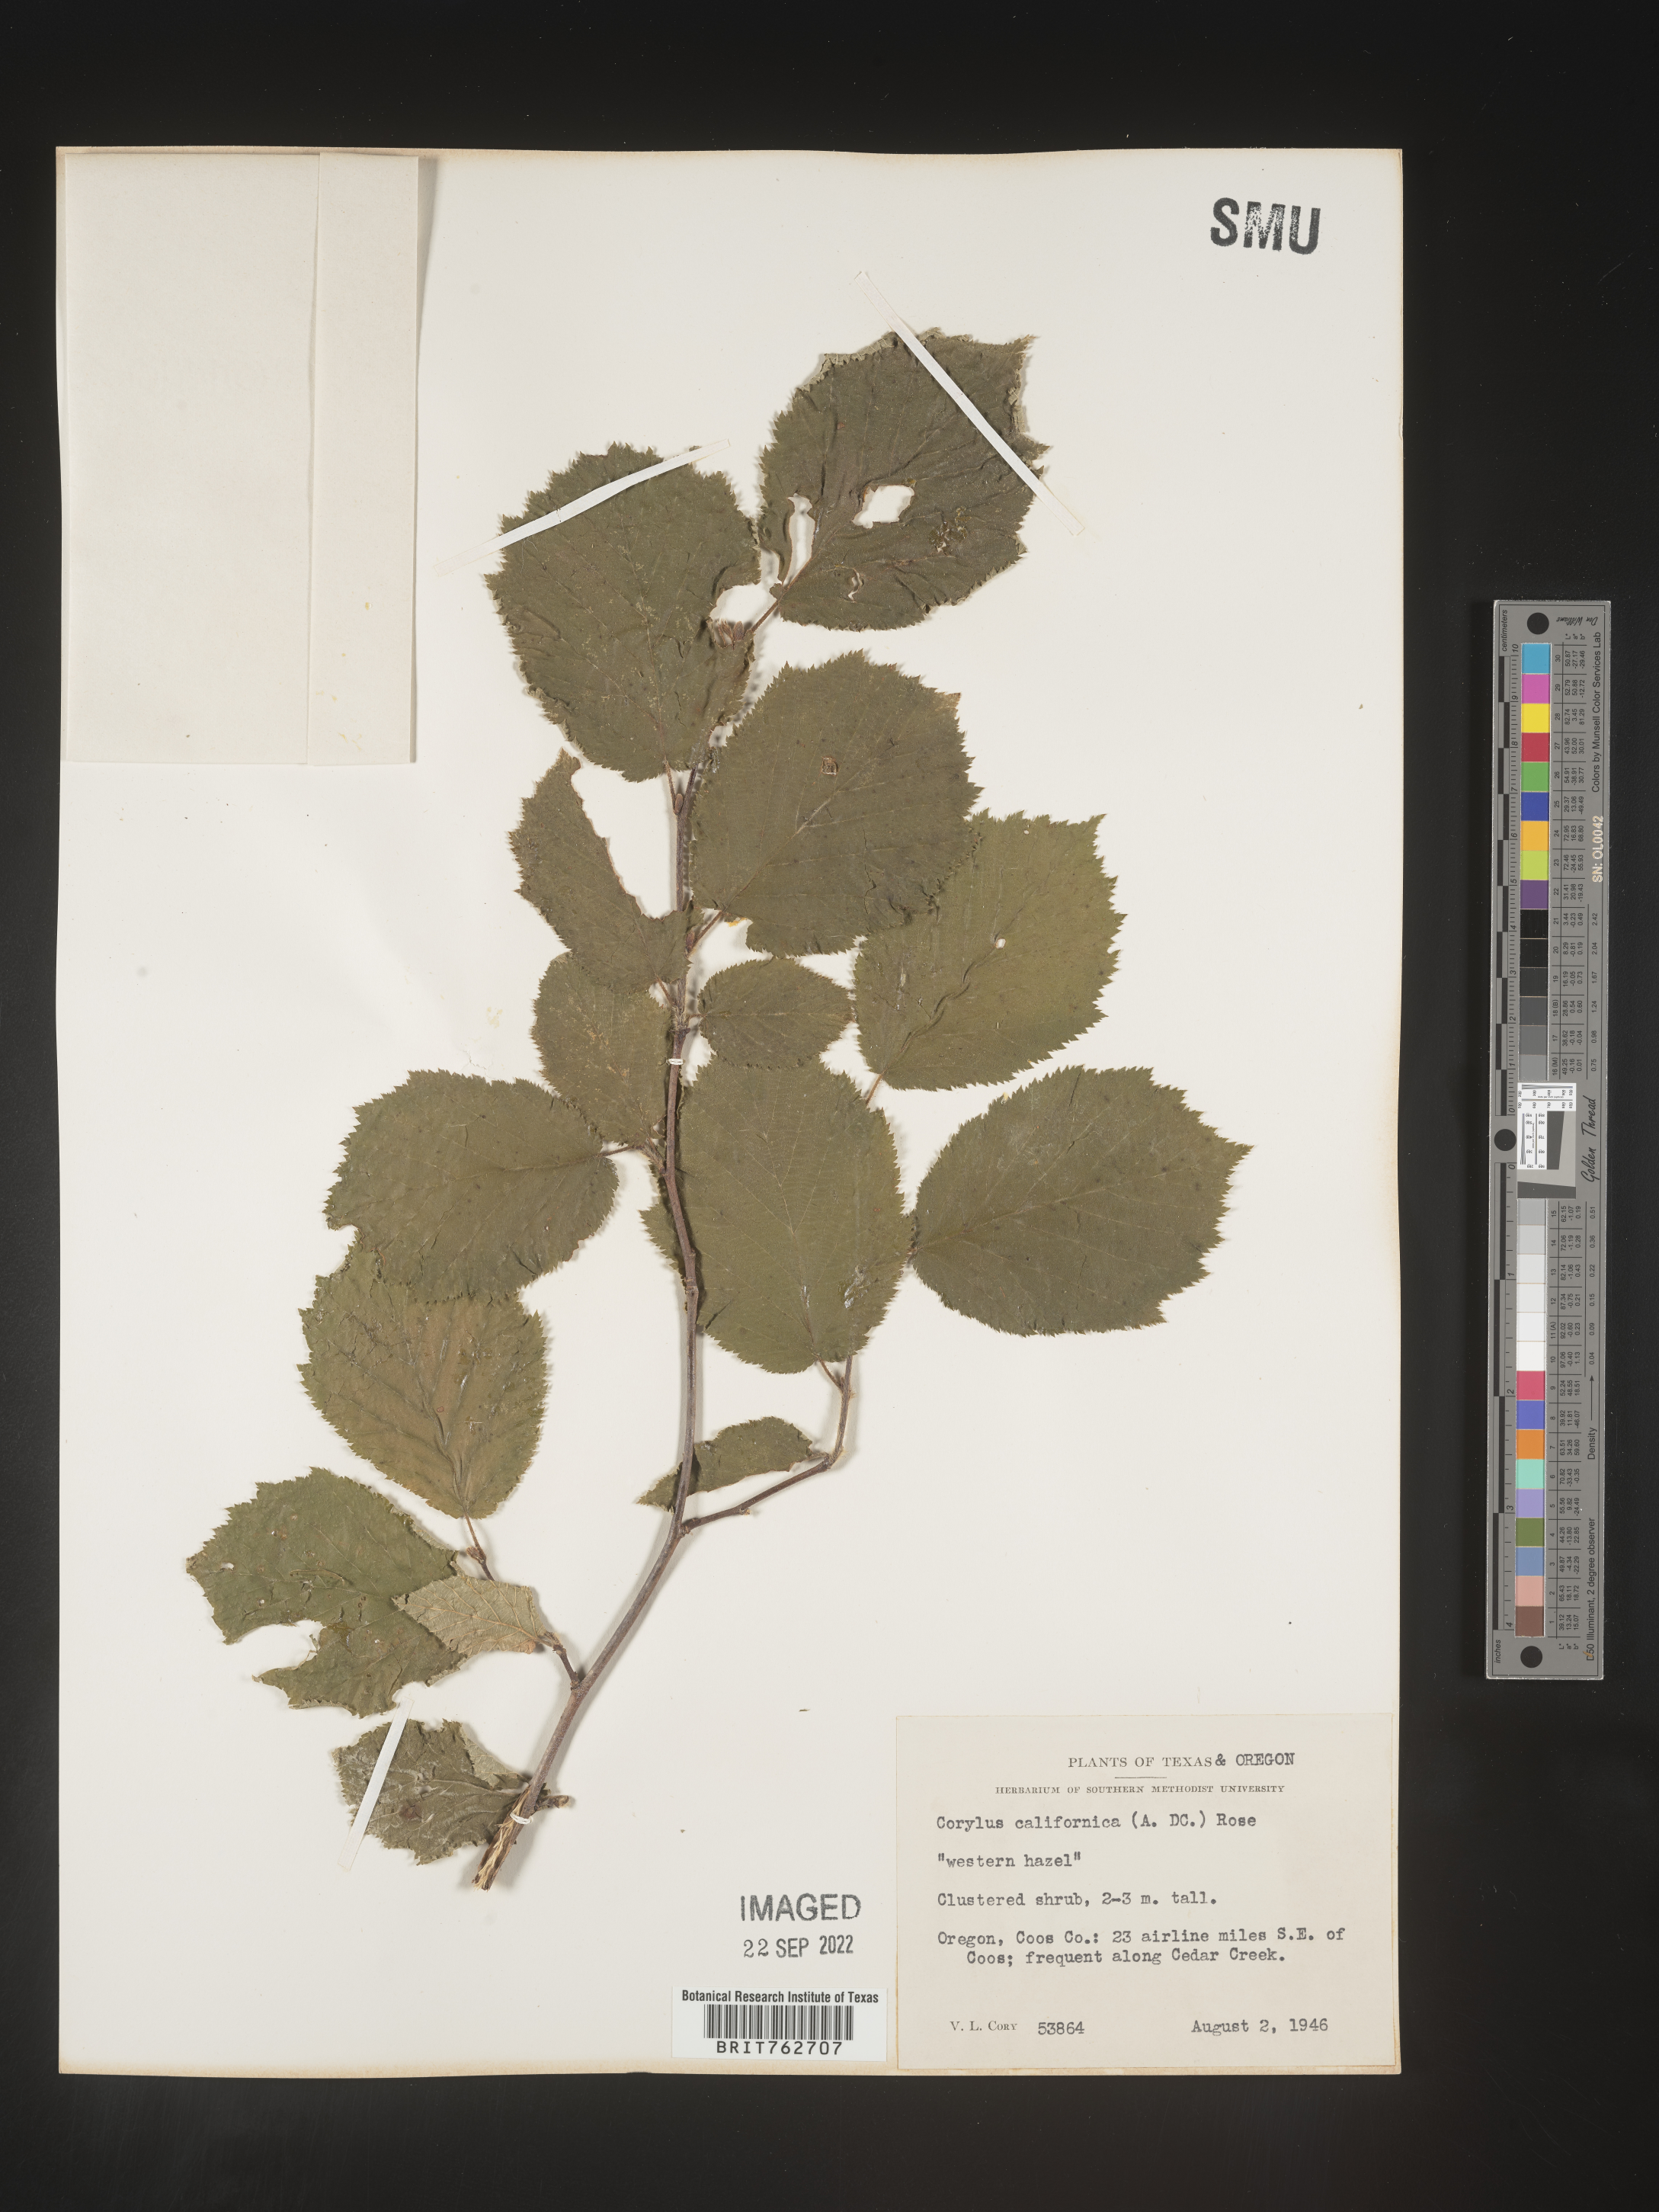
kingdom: Plantae
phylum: Tracheophyta
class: Magnoliopsida
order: Fagales
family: Betulaceae
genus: Corylus
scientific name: Corylus cornuta
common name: Beaked hazel
